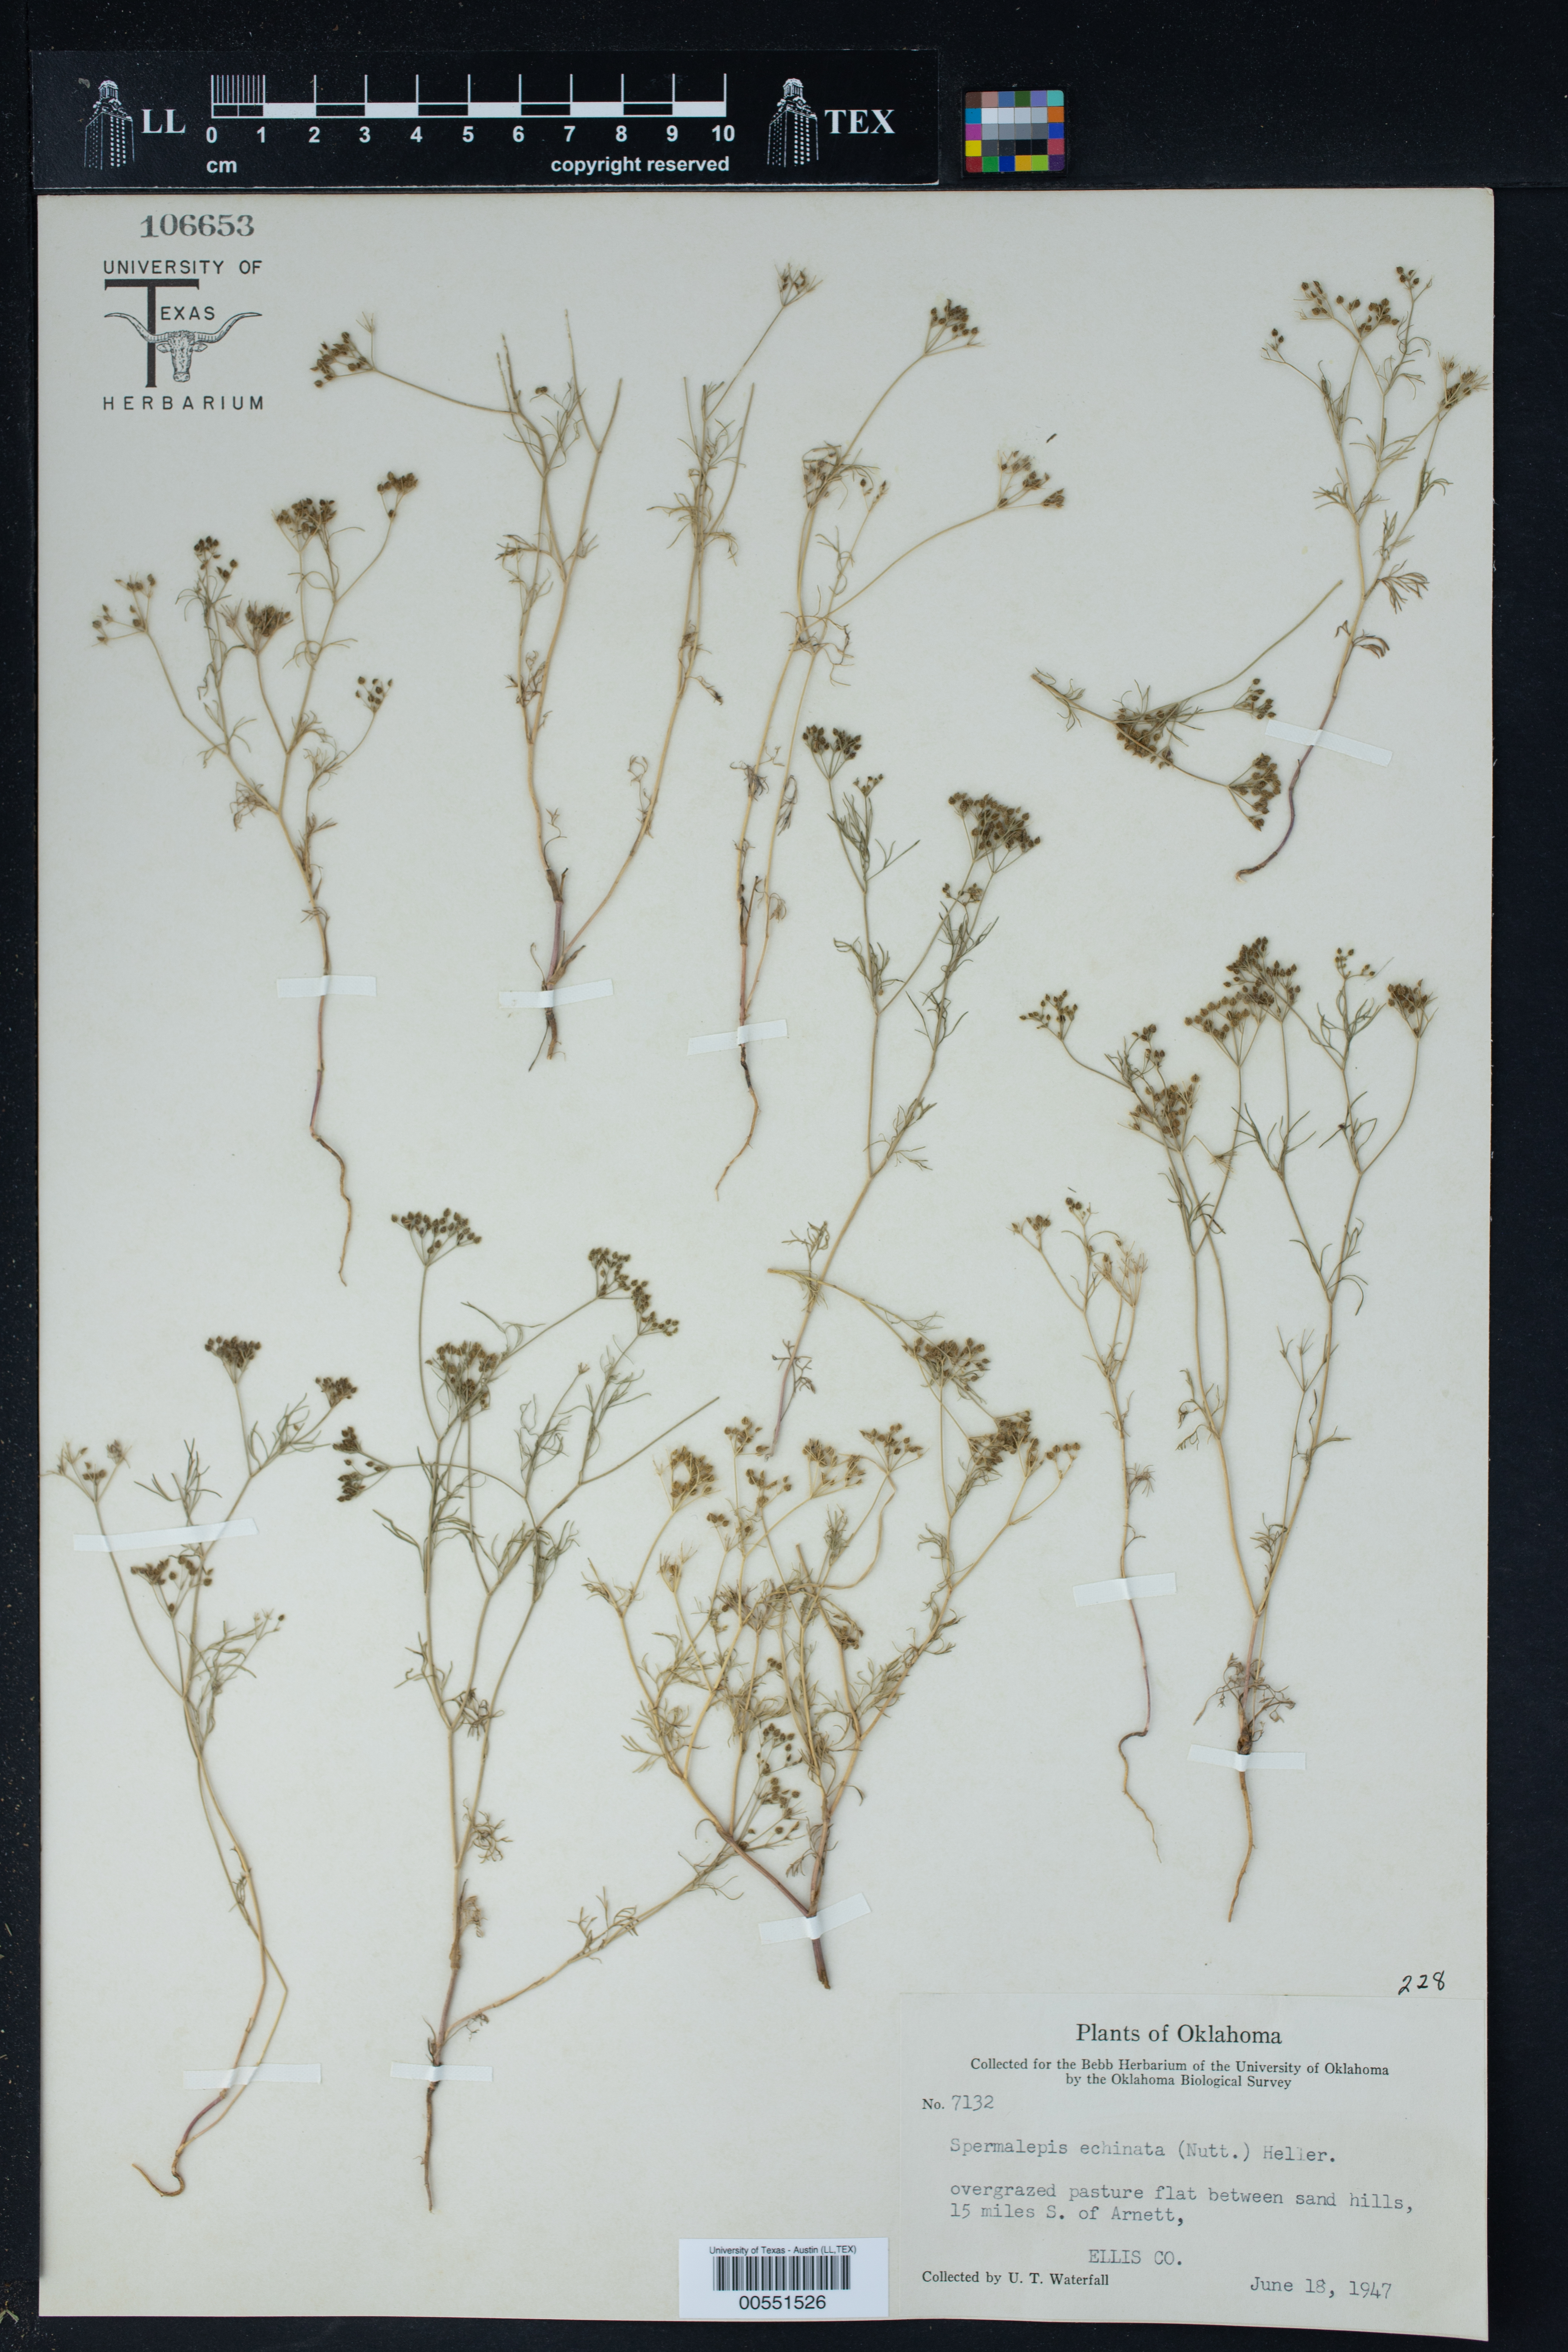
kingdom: Plantae
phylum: Tracheophyta
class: Magnoliopsida
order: Apiales
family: Apiaceae
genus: Spermolepis
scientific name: Spermolepis echinata
